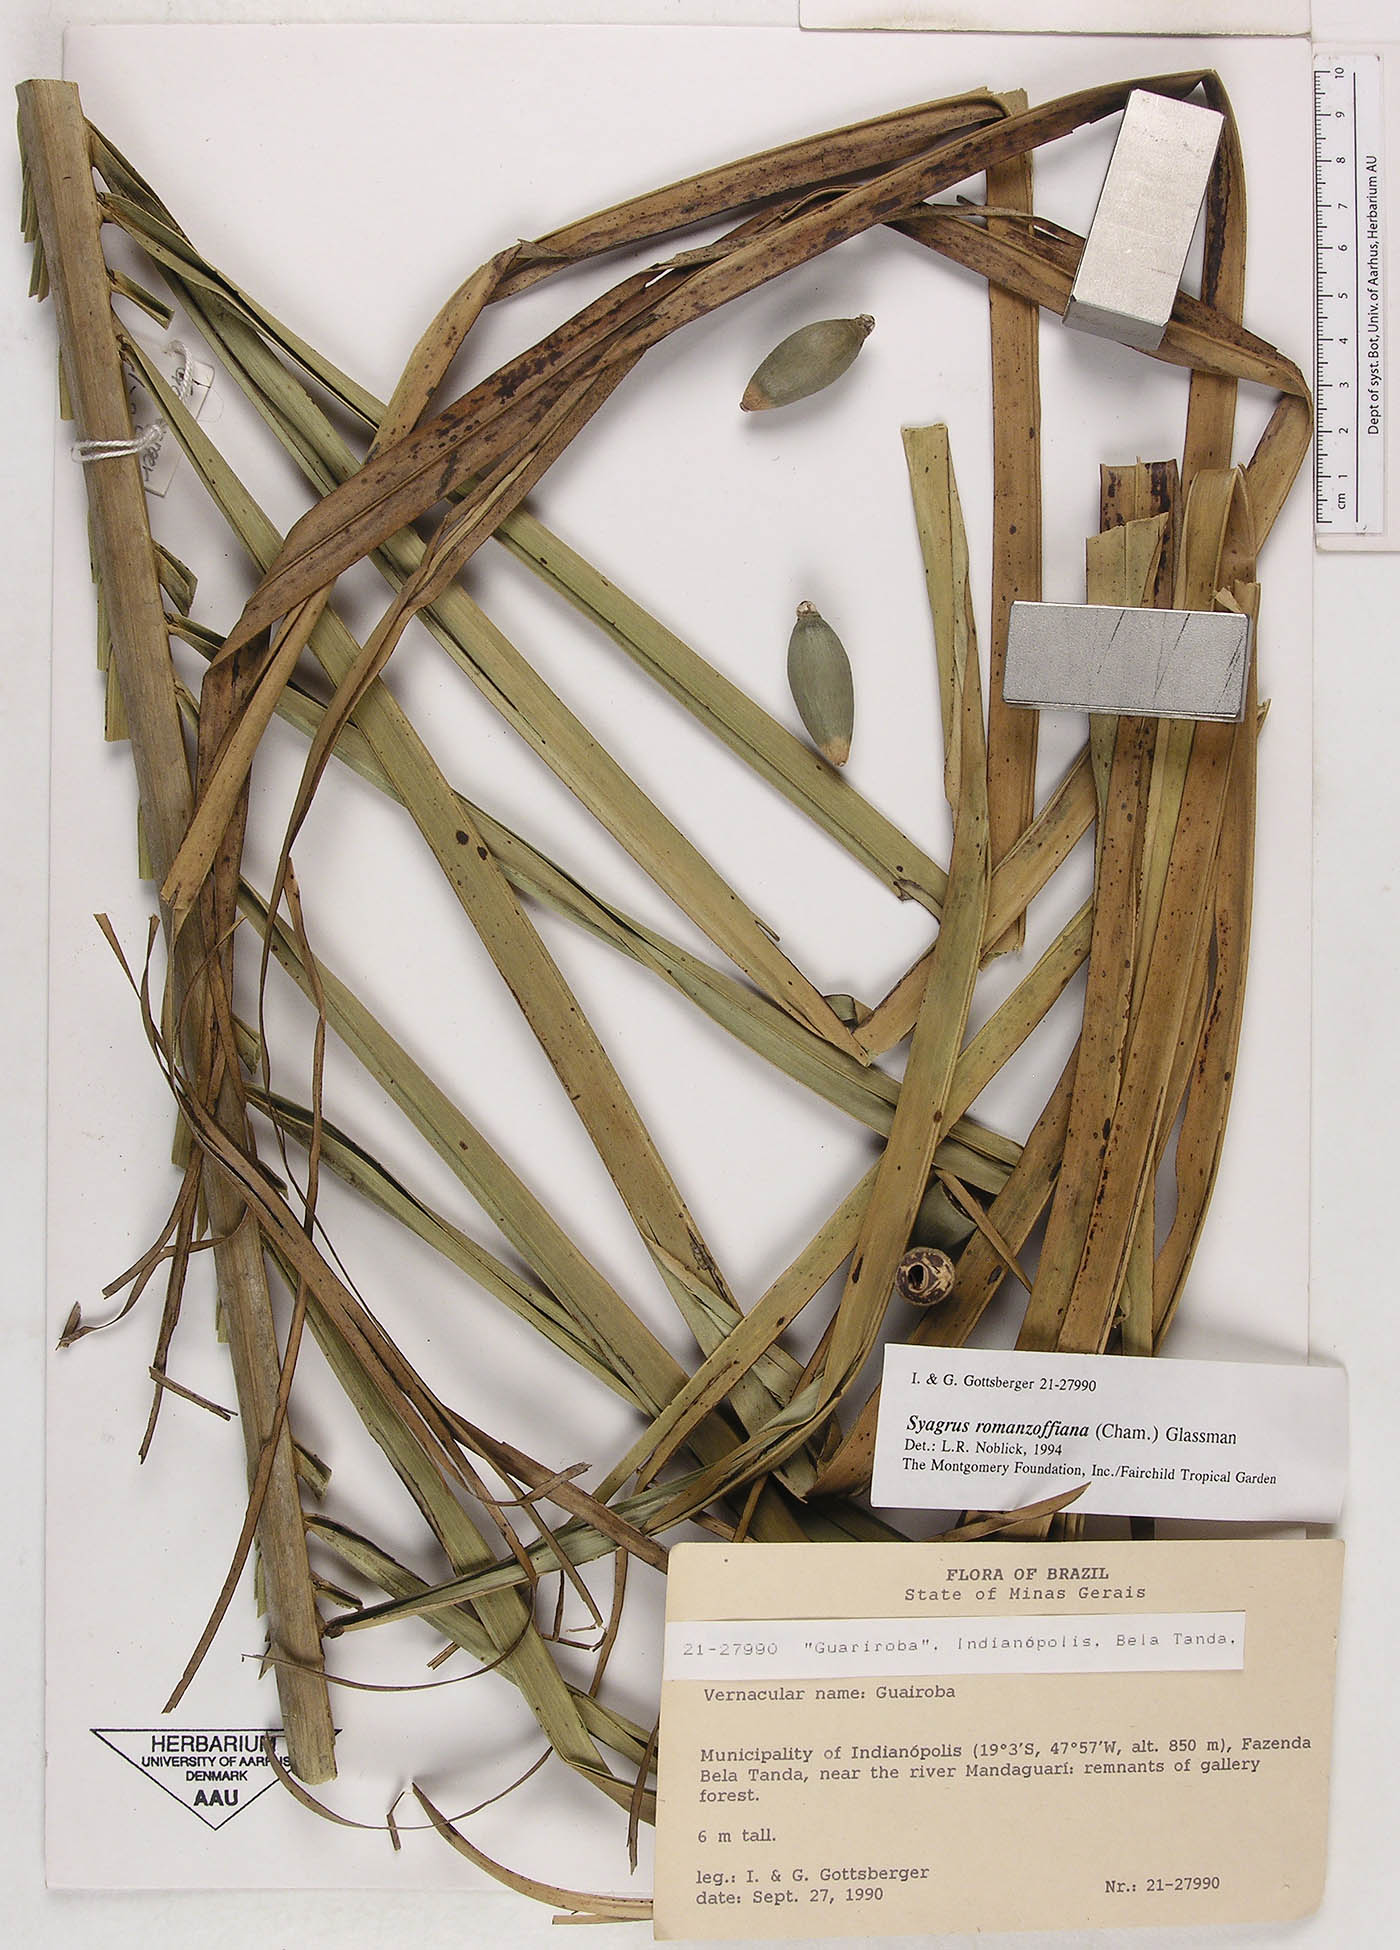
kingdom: Plantae
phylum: Tracheophyta
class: Liliopsida
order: Arecales
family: Arecaceae
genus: Syagrus
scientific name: Syagrus romanzoffiana
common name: Queen palm
